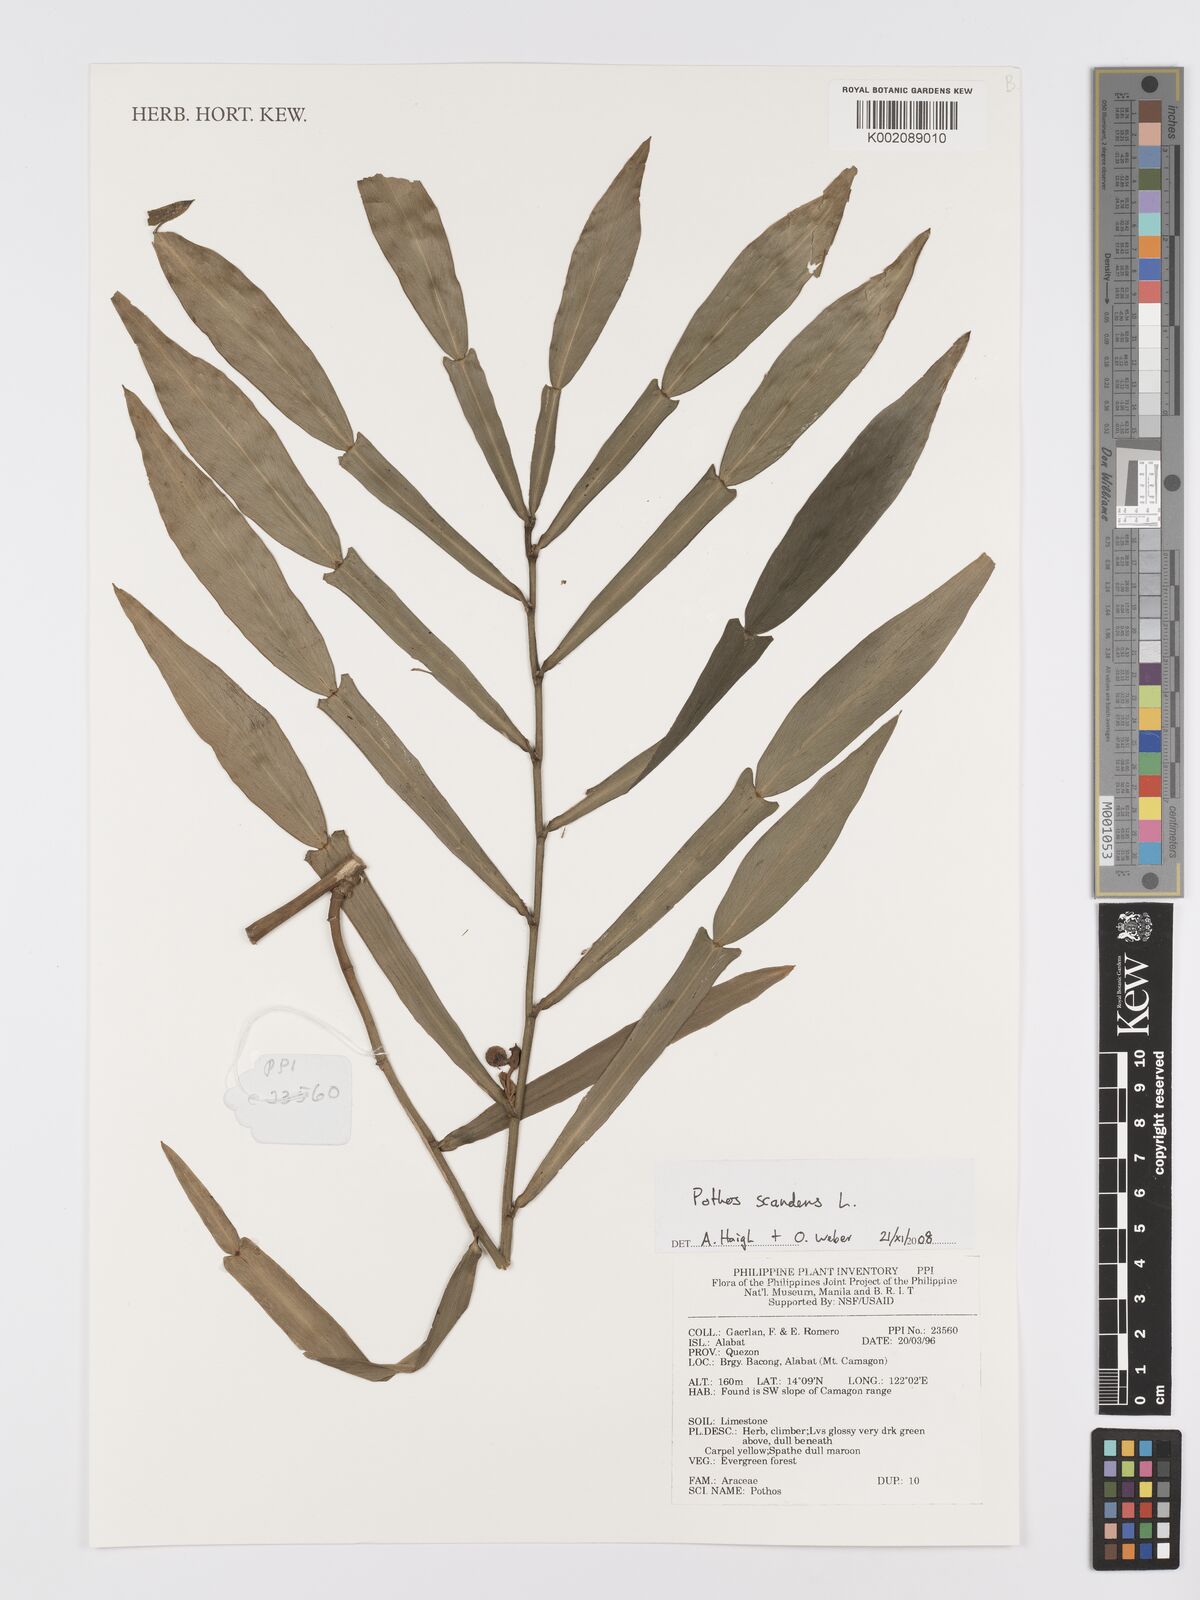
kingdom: Plantae
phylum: Tracheophyta
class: Liliopsida
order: Alismatales
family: Araceae
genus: Pothos
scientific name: Pothos scandens
